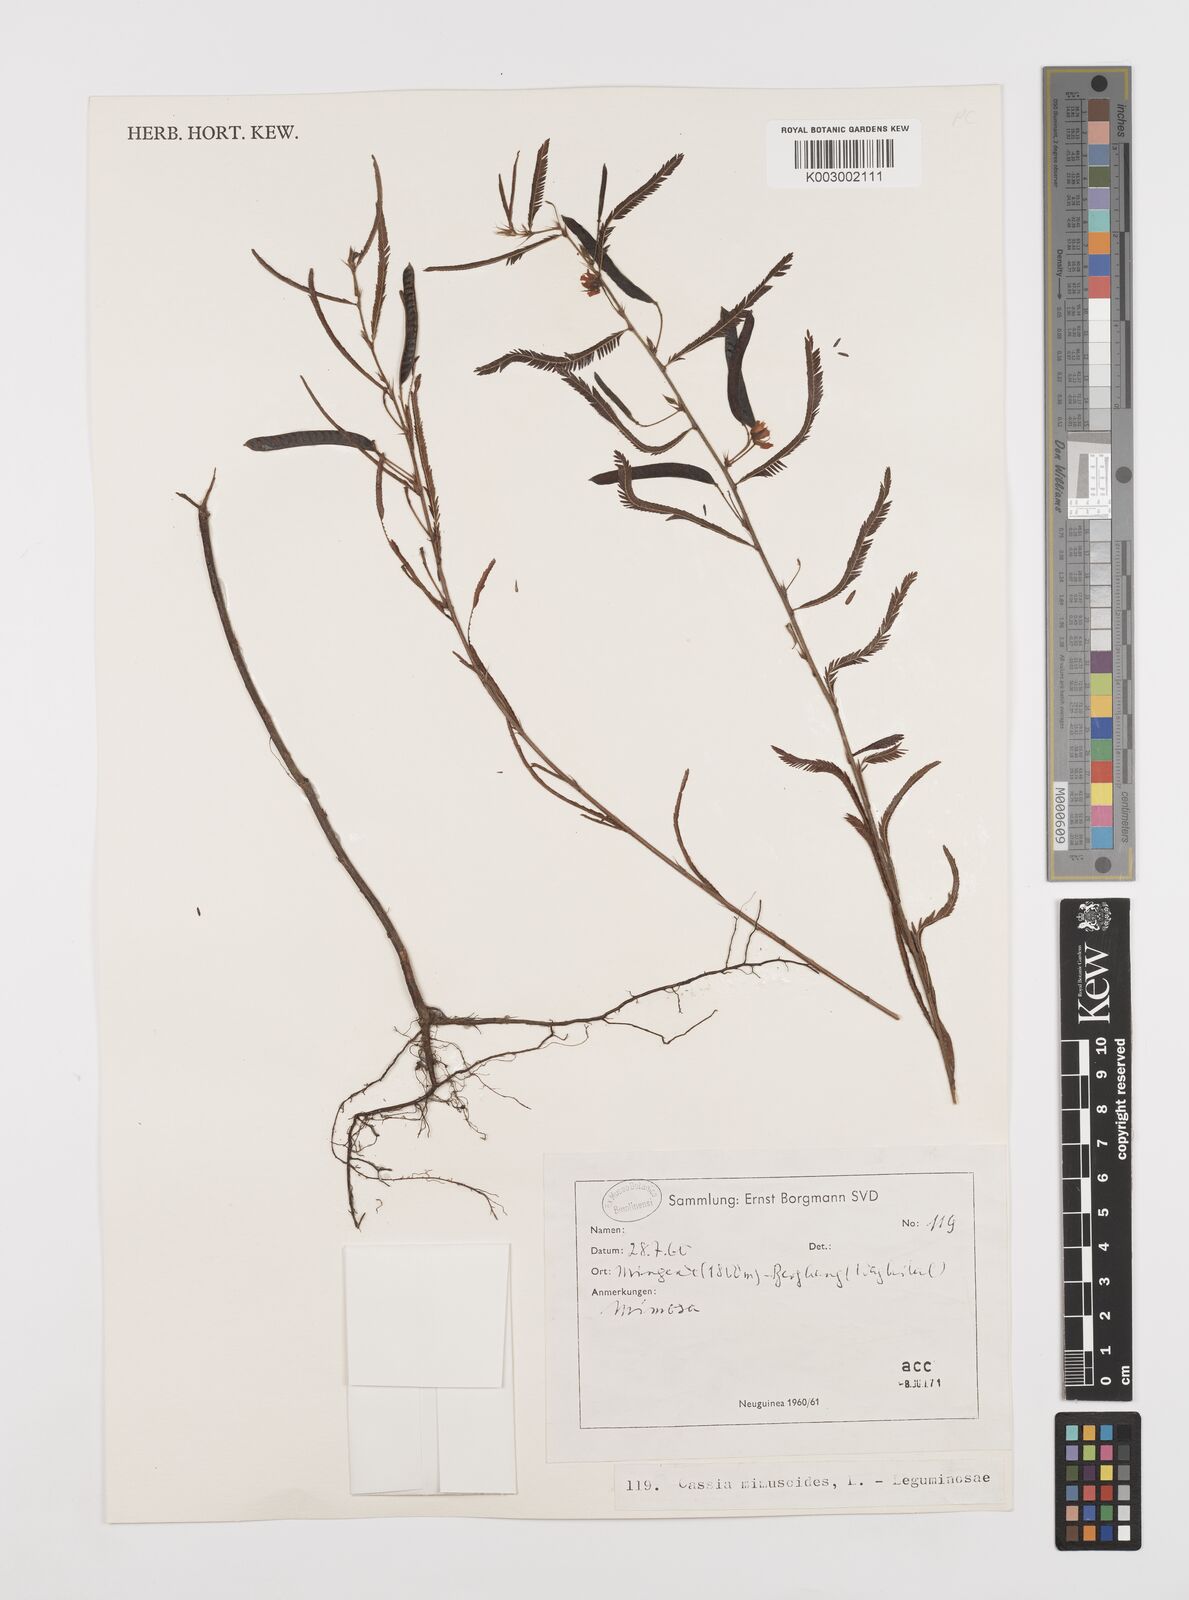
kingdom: Plantae
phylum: Tracheophyta
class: Magnoliopsida
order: Fabales
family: Fabaceae
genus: Chamaecrista
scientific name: Chamaecrista mimosoides
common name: Fish-bone cassia
